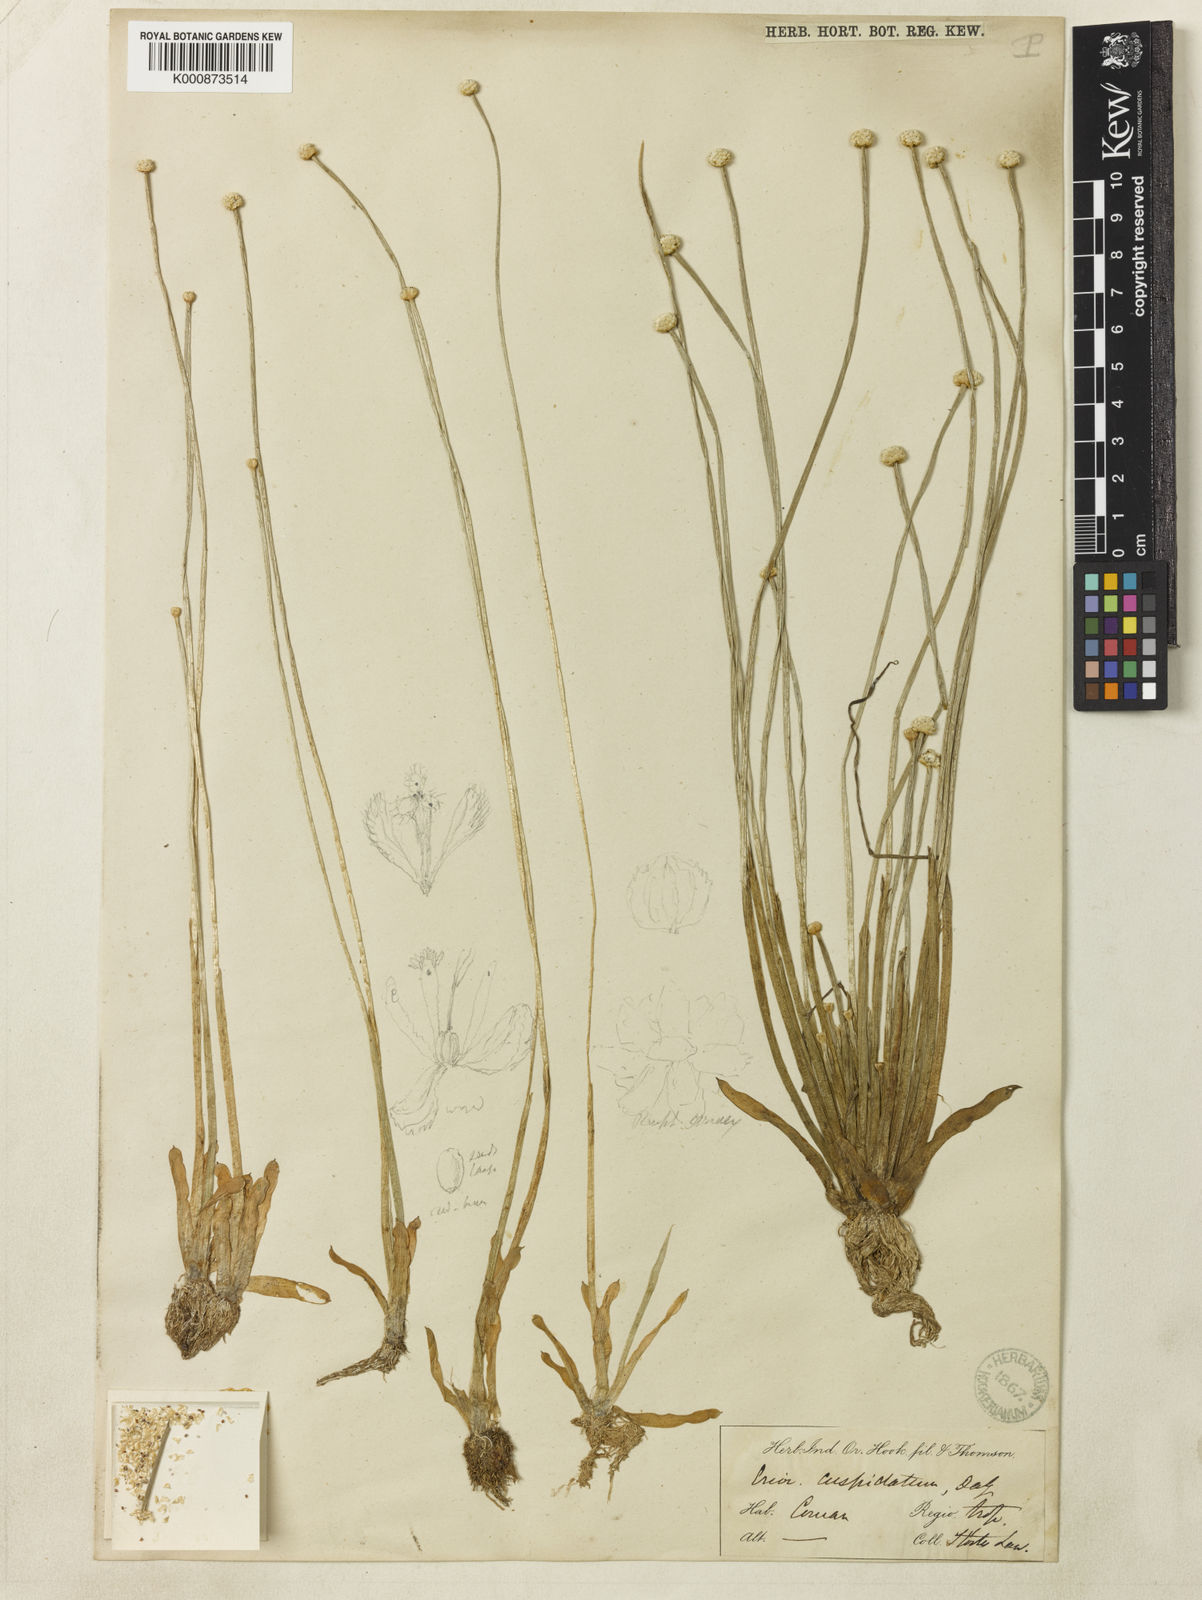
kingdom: Plantae
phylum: Tracheophyta
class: Liliopsida
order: Poales
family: Eriocaulaceae
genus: Eriocaulon
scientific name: Eriocaulon cuspidatum
